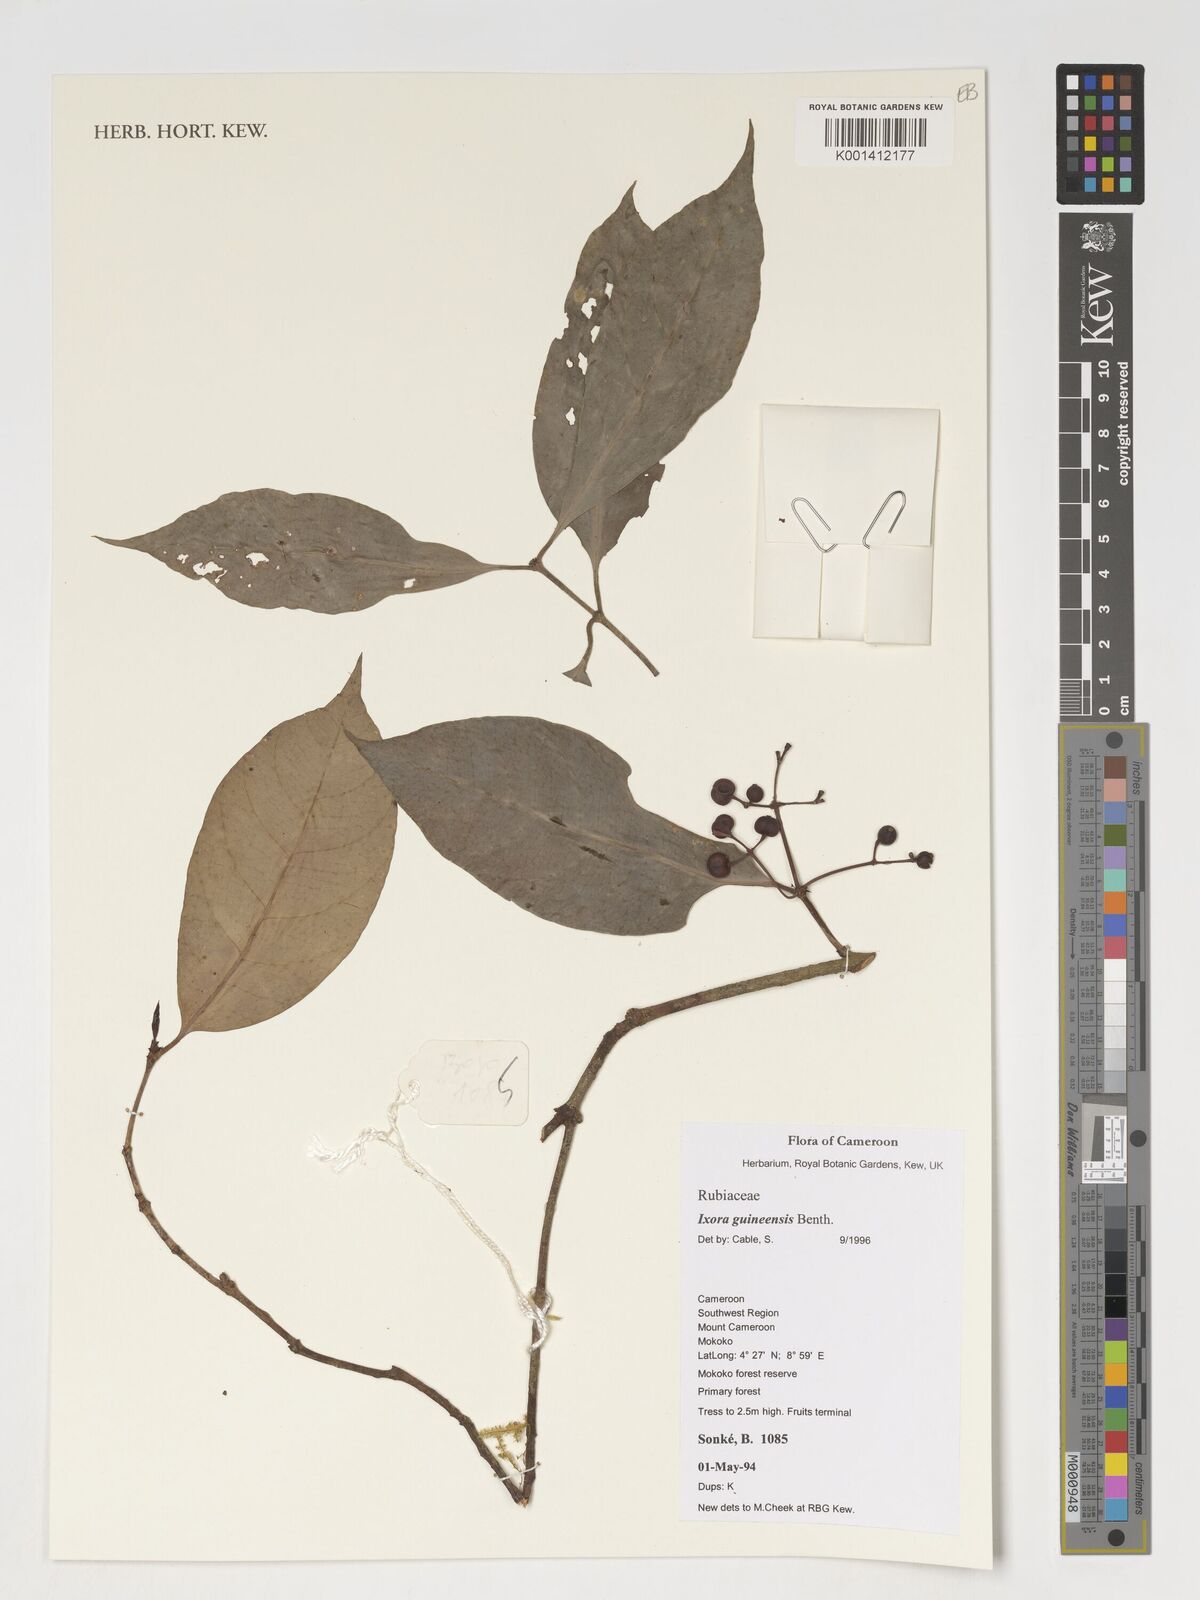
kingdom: Plantae
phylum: Tracheophyta
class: Magnoliopsida
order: Gentianales
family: Rubiaceae
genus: Ixora
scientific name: Ixora guineensis
